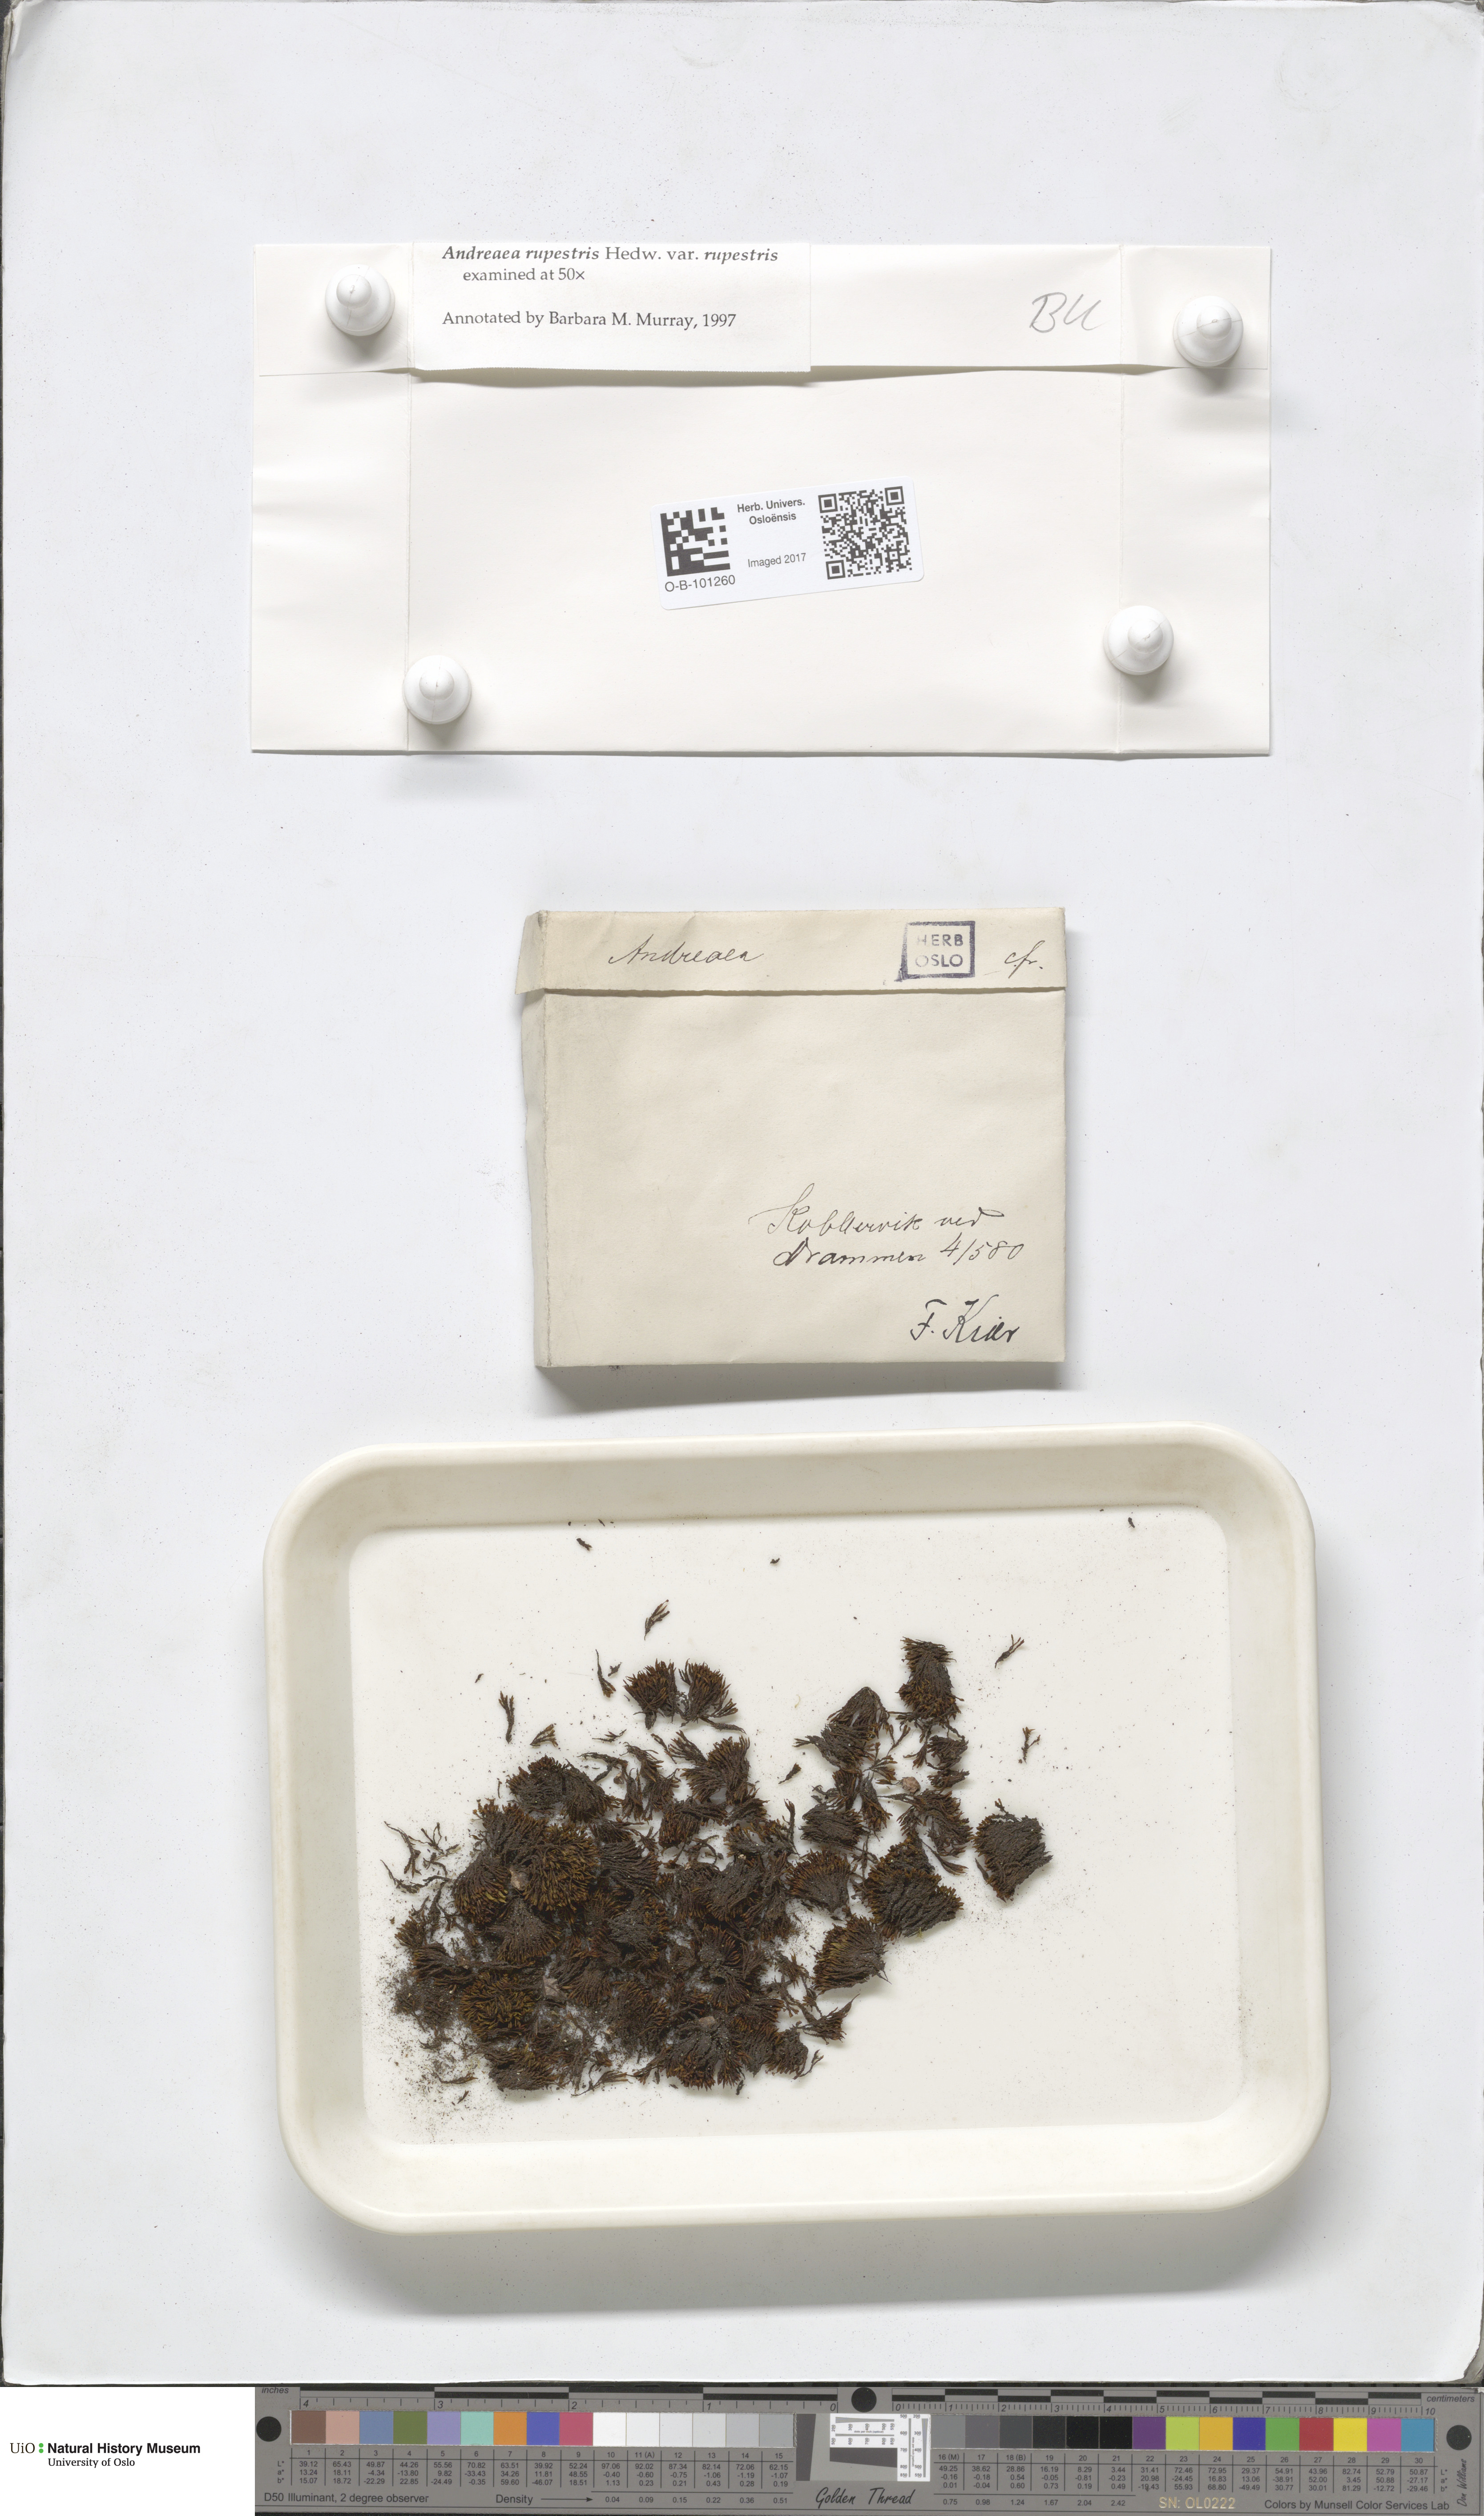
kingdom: Plantae
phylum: Bryophyta
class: Andreaeopsida
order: Andreaeales
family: Andreaeaceae
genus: Andreaea
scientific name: Andreaea rupestris
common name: Black rock moss
